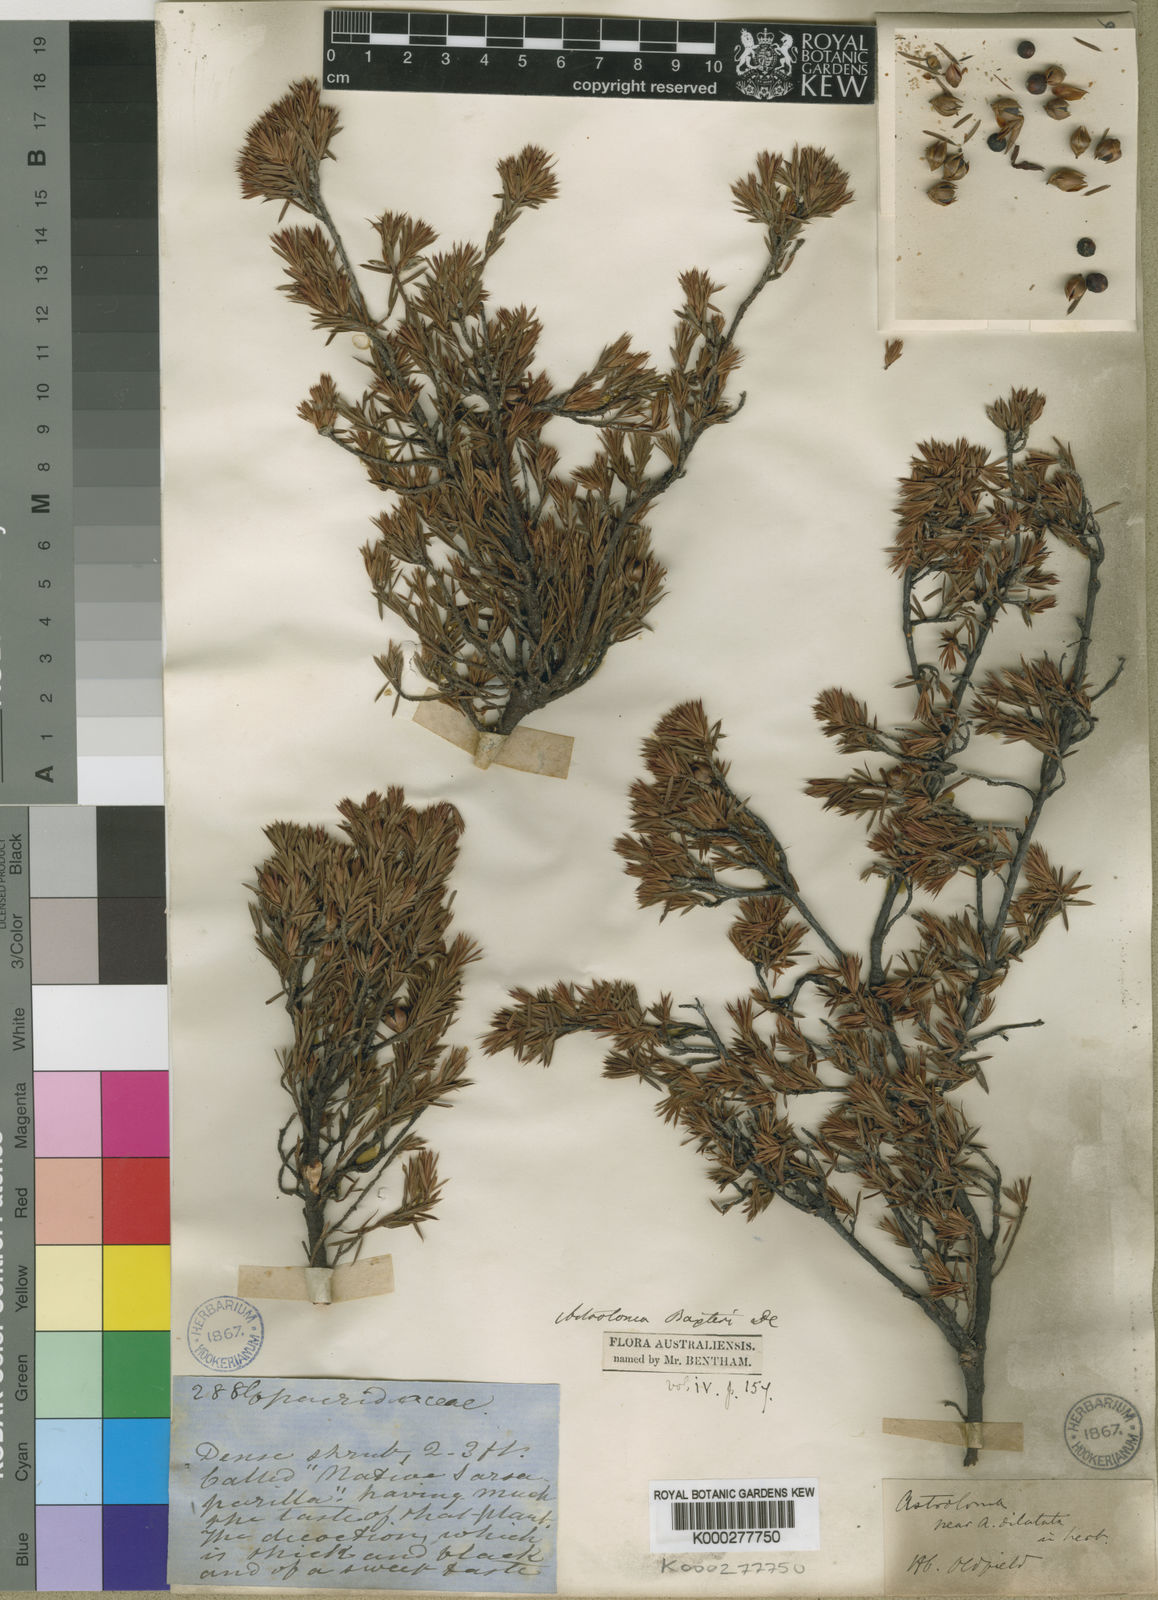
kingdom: Plantae
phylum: Tracheophyta
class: Magnoliopsida
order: Ericales
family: Ericaceae
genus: Brachyloma
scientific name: Brachyloma baxteri
